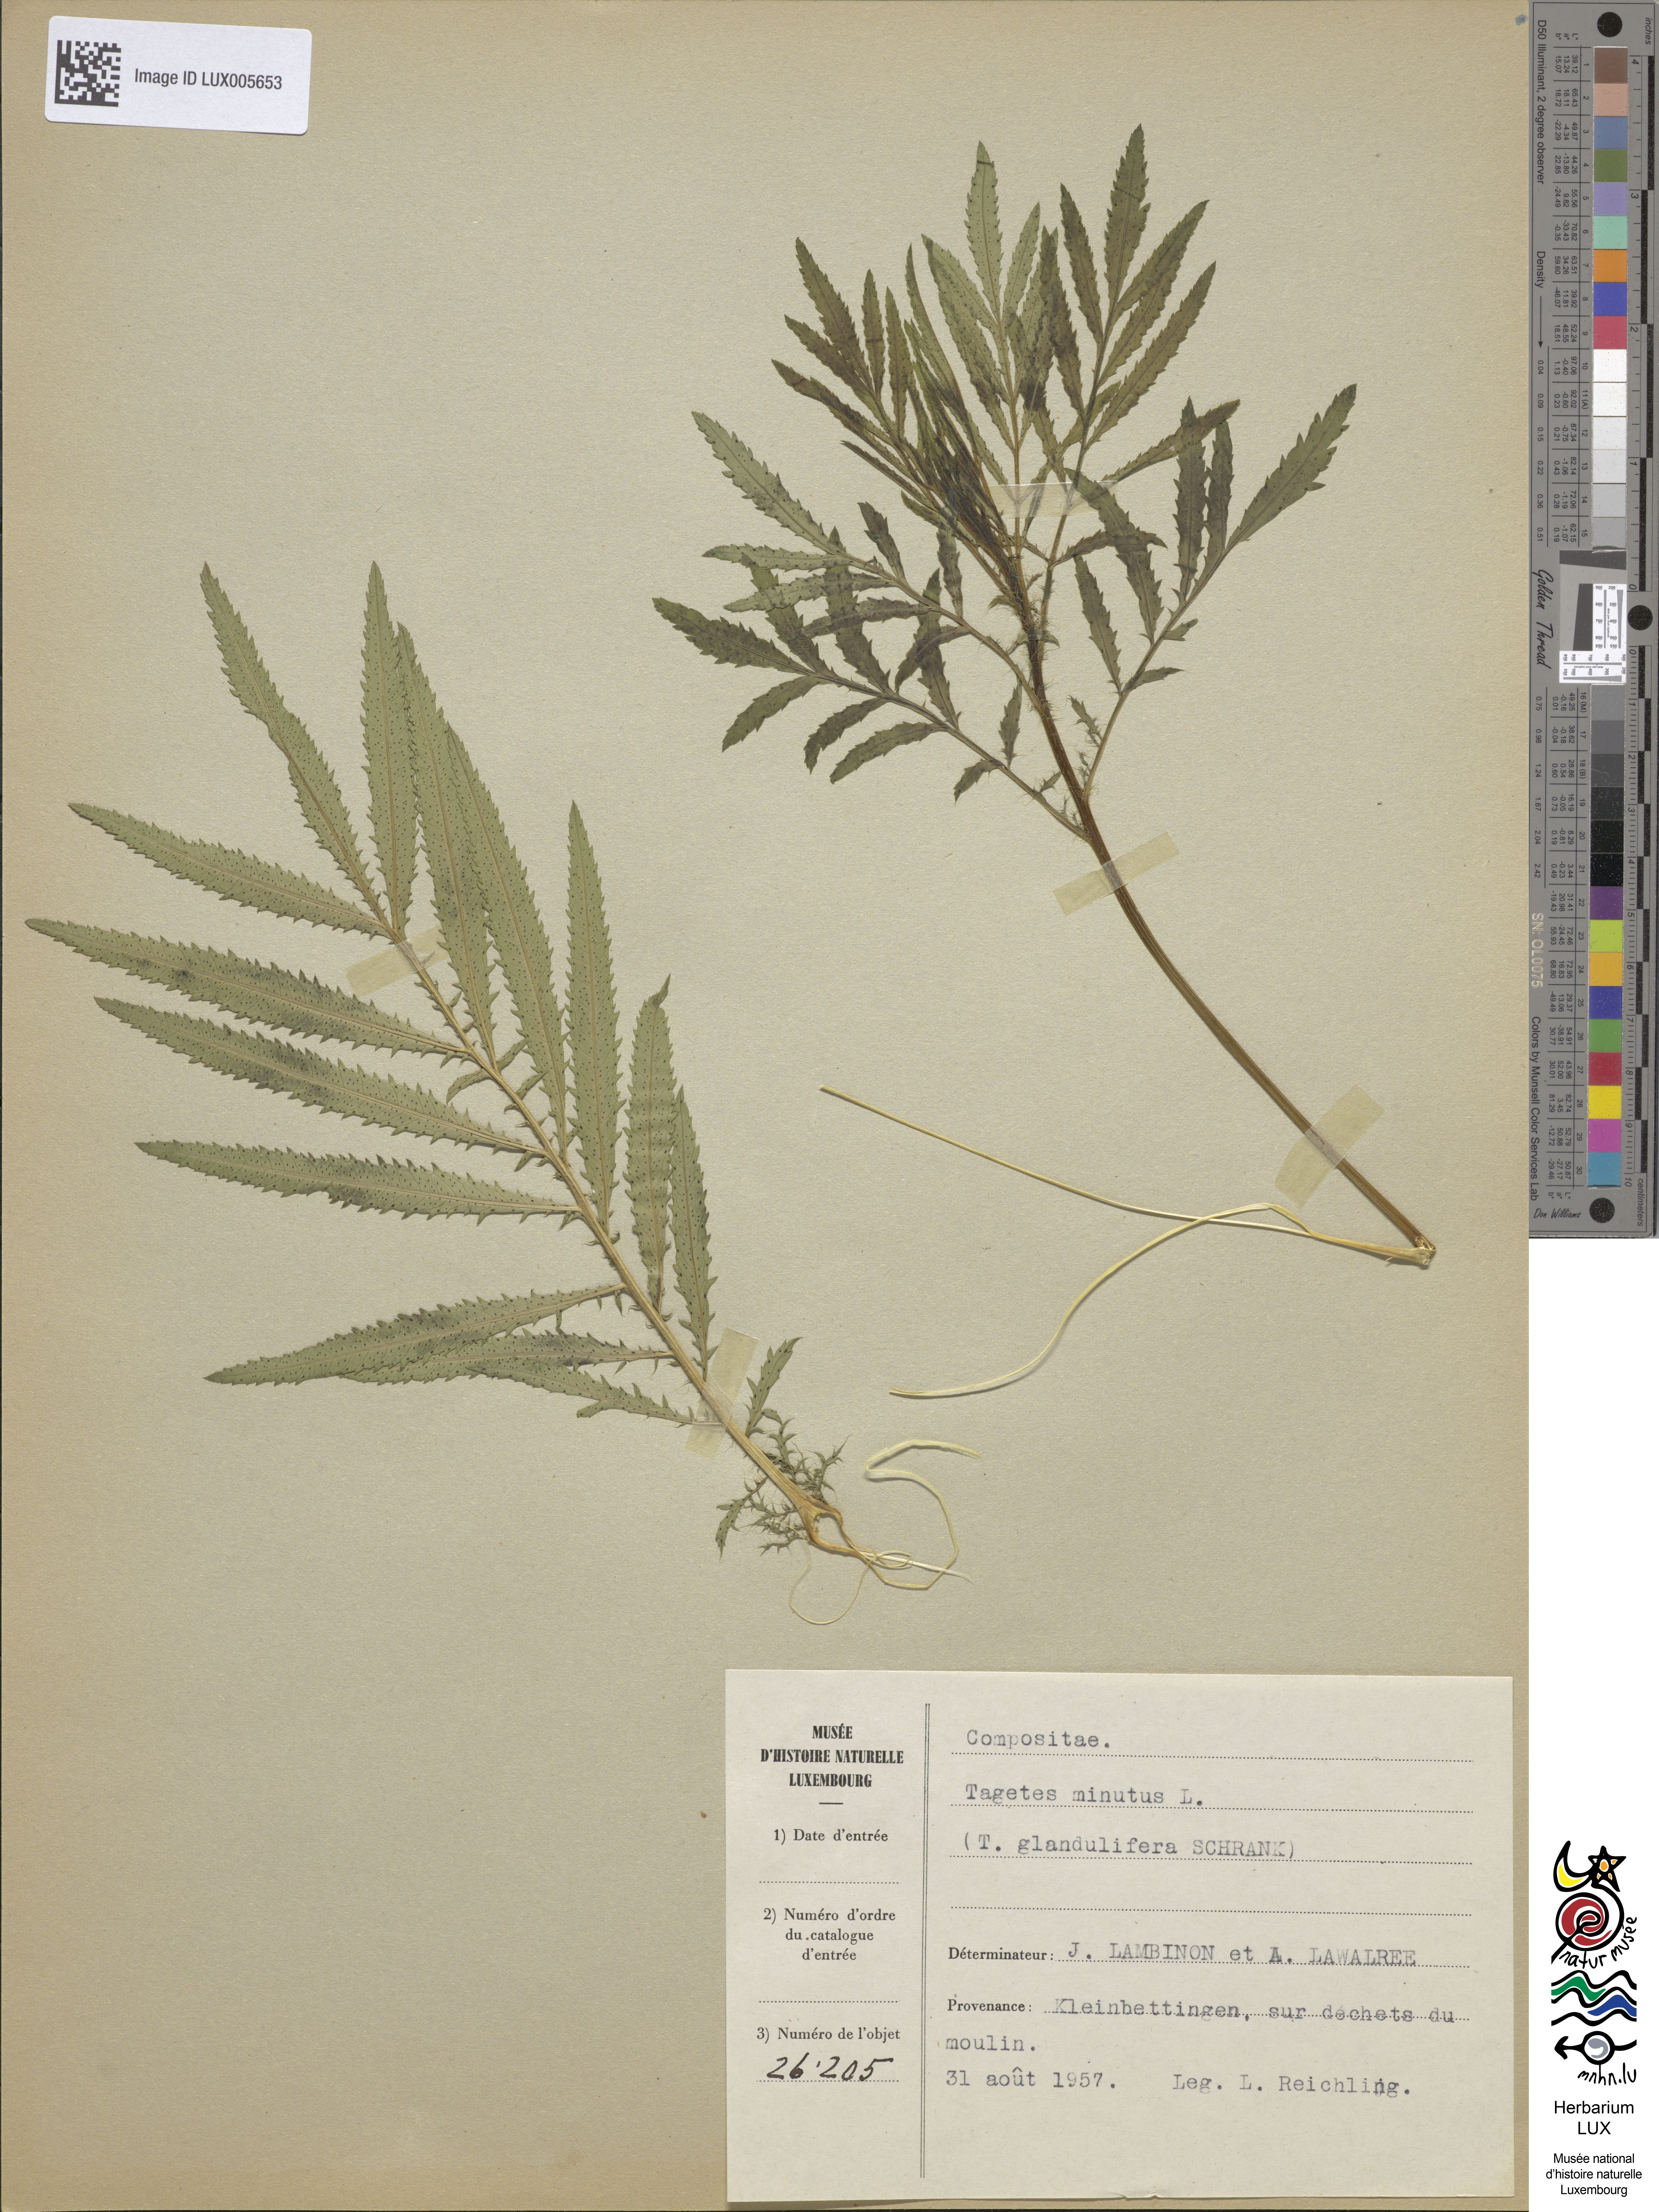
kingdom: Plantae
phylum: Tracheophyta
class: Magnoliopsida
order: Asterales
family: Asteraceae
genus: Tagetes
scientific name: Tagetes minuta
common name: Muster john henry
